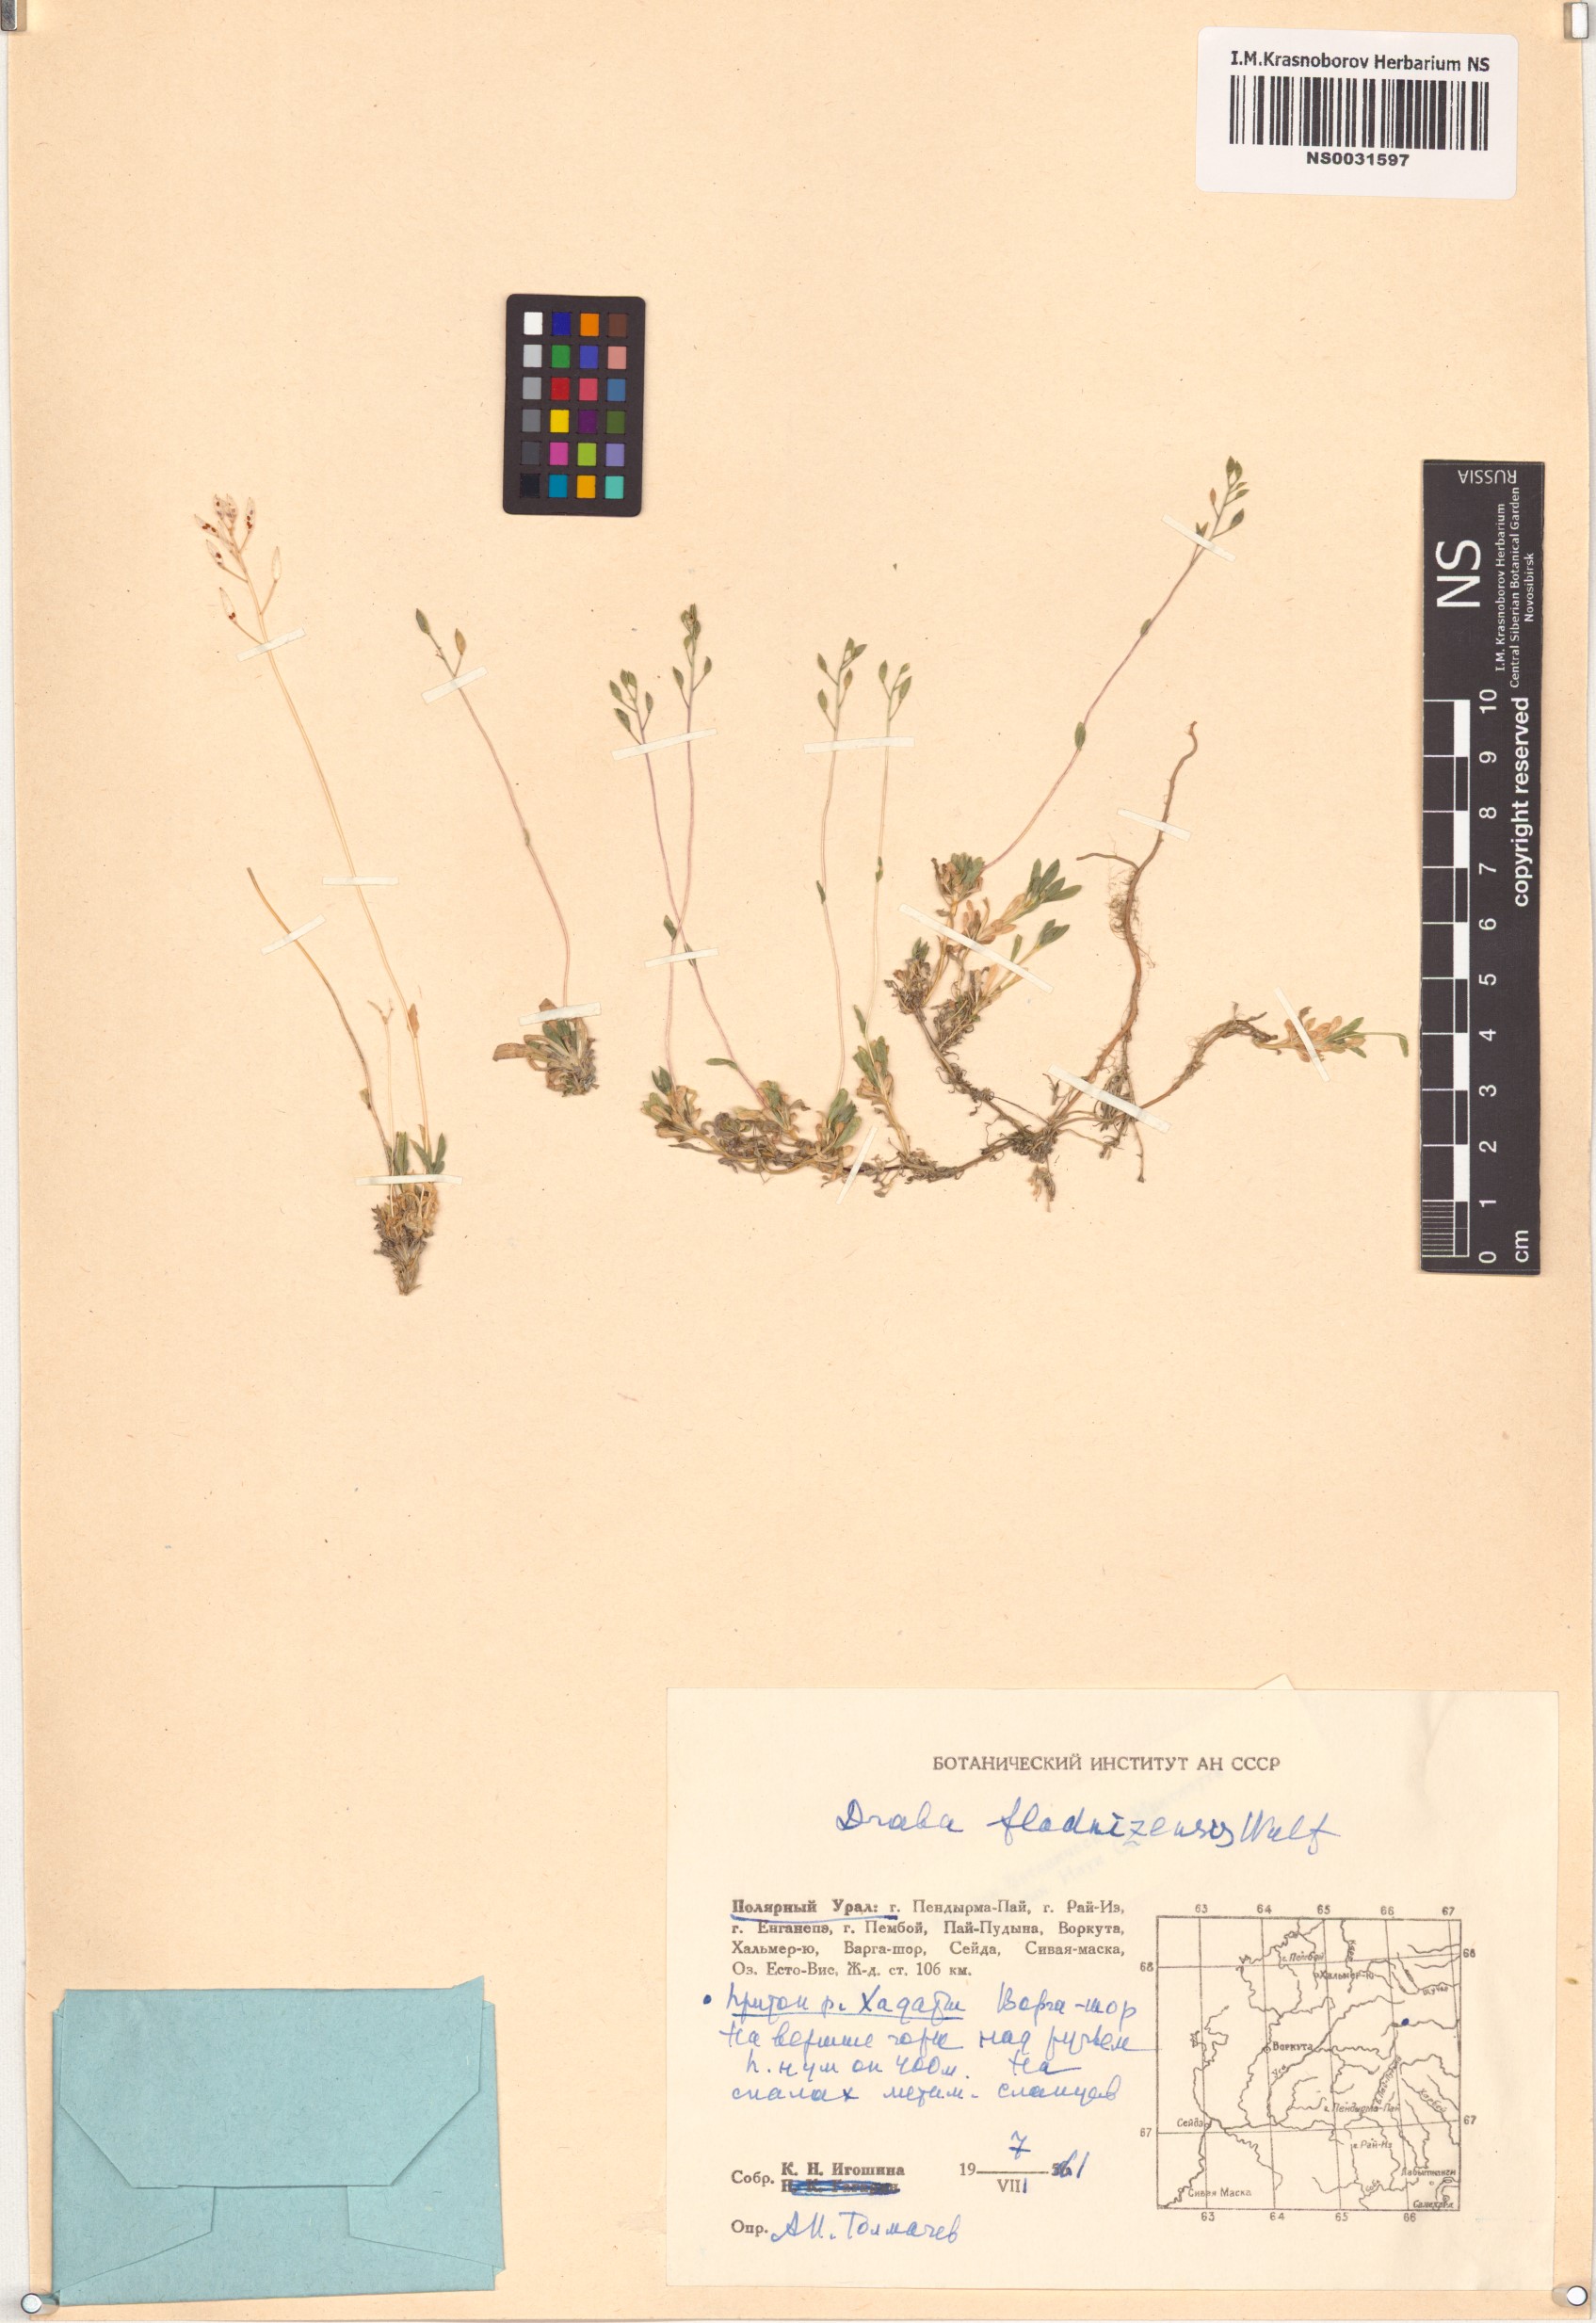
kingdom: Plantae
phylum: Tracheophyta
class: Magnoliopsida
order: Brassicales
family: Brassicaceae
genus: Draba
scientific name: Draba fladnizensis
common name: Austrian draba
